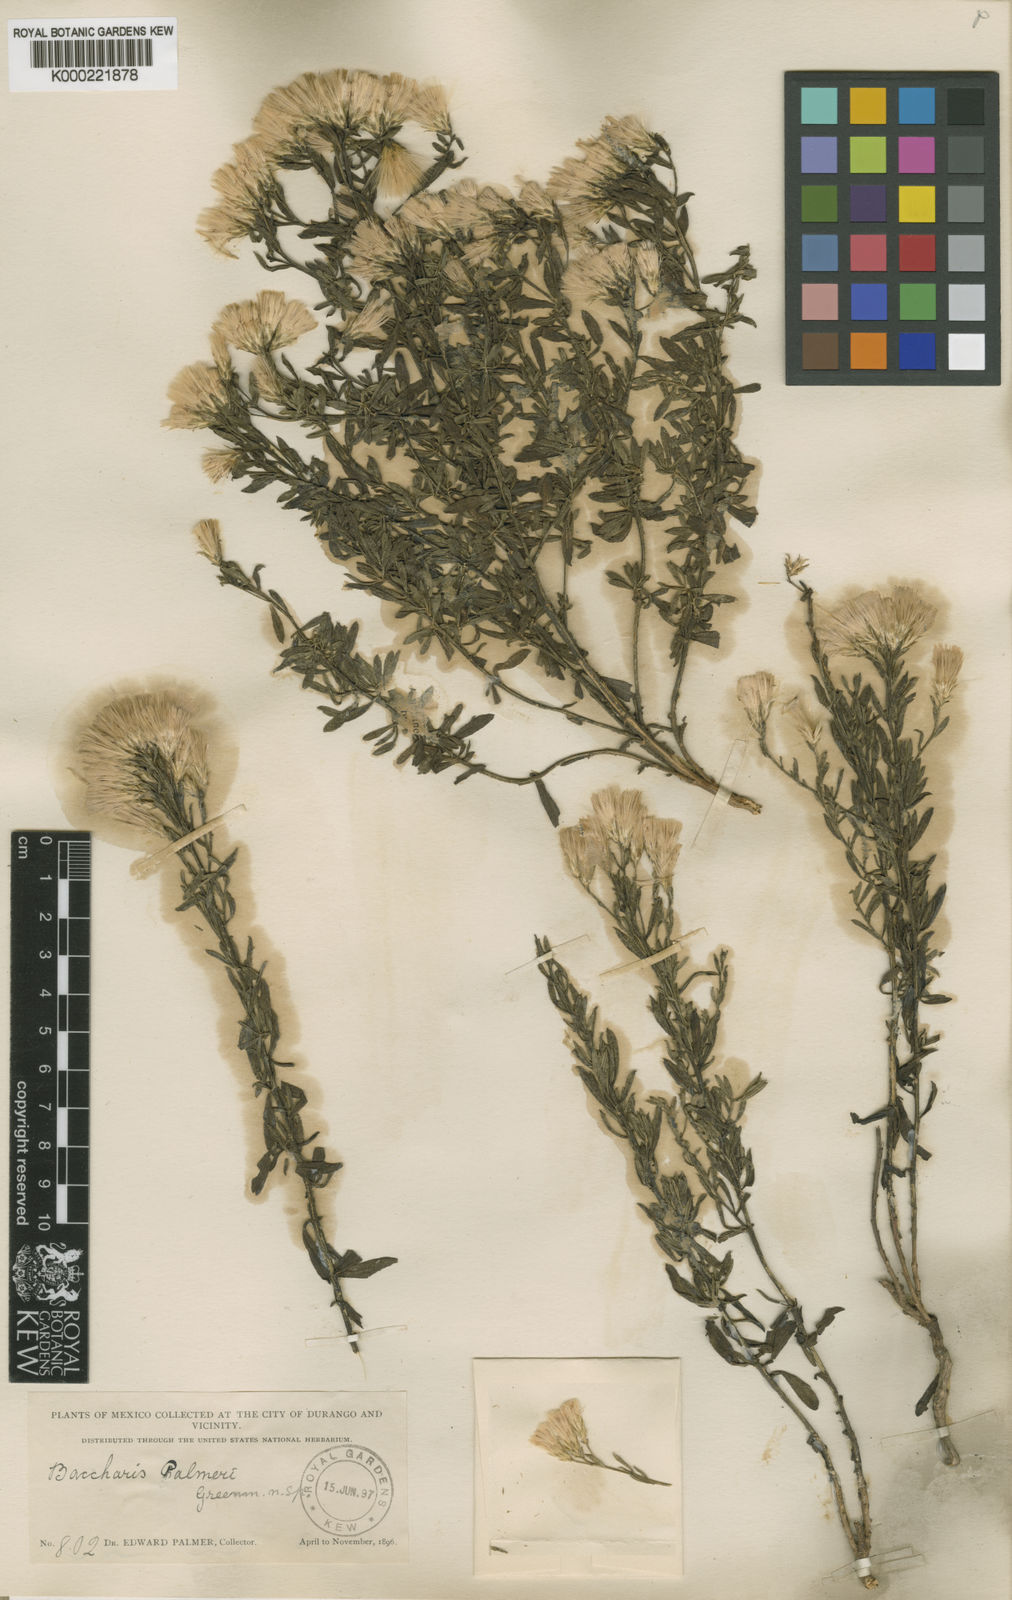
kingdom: Plantae
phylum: Tracheophyta
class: Magnoliopsida
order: Asterales
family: Asteraceae
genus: Baccharis
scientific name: Baccharis palmeri
